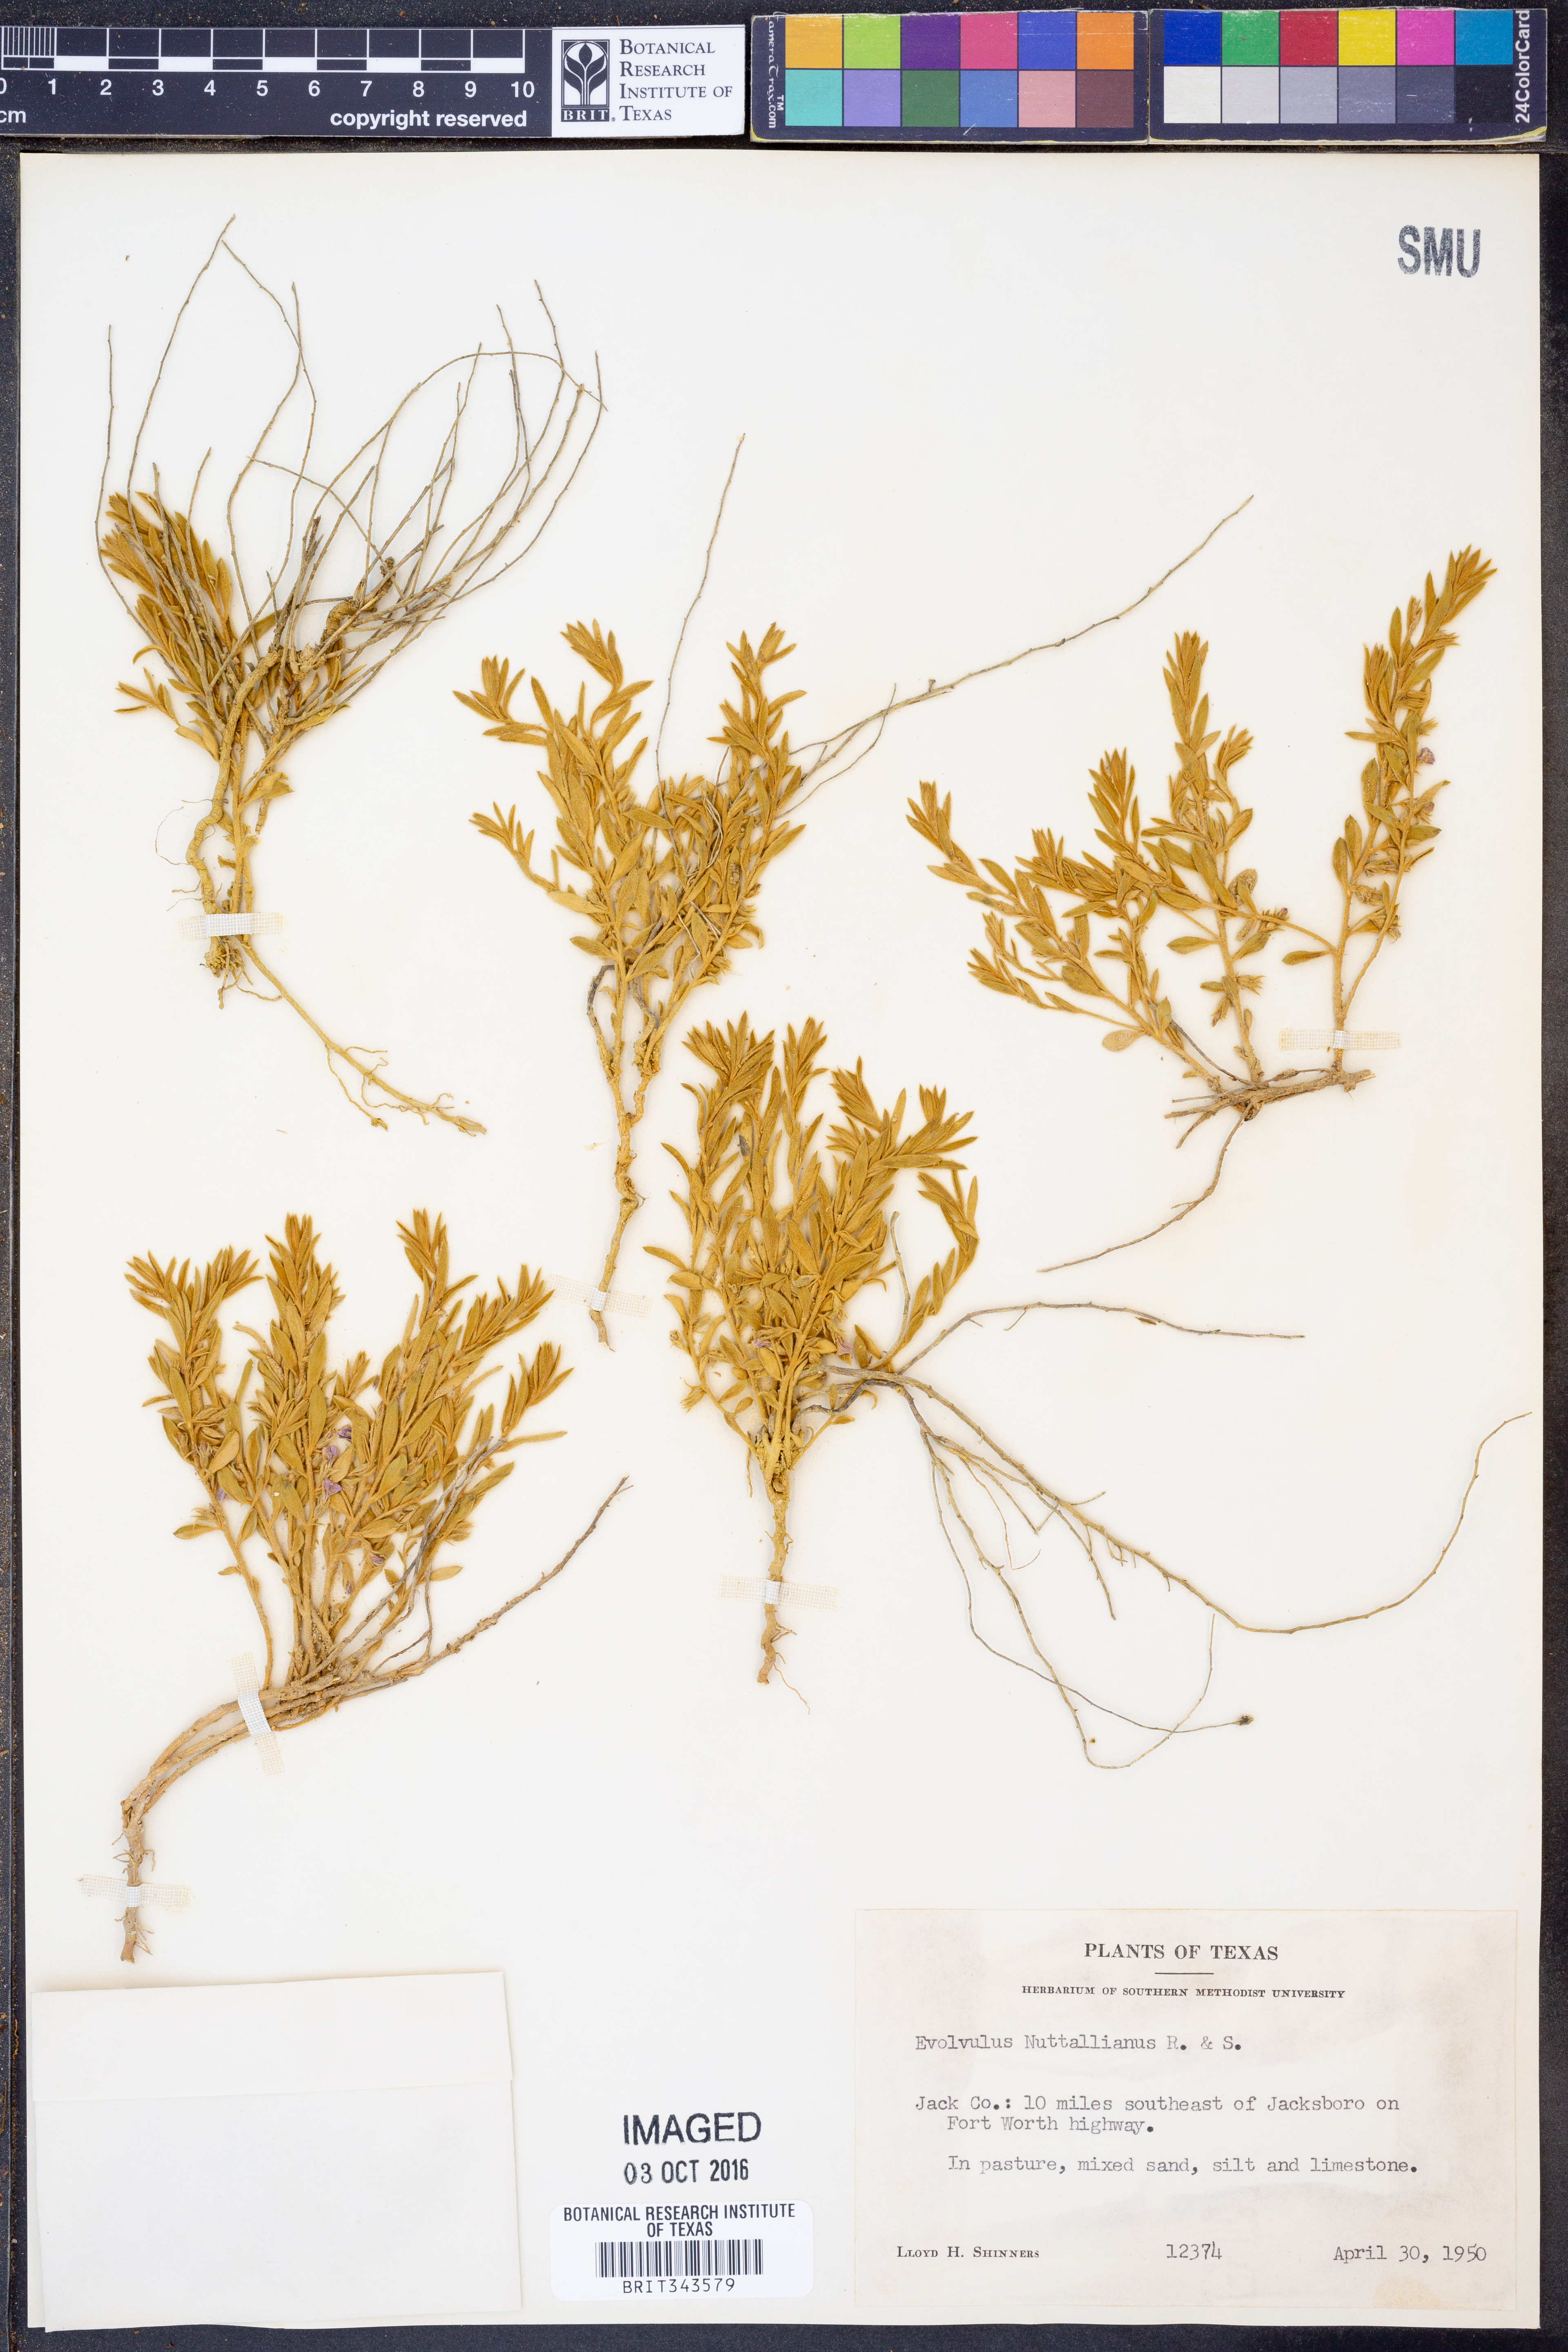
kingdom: Plantae
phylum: Tracheophyta
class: Magnoliopsida
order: Solanales
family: Convolvulaceae
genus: Evolvulus
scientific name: Evolvulus nuttallianus
